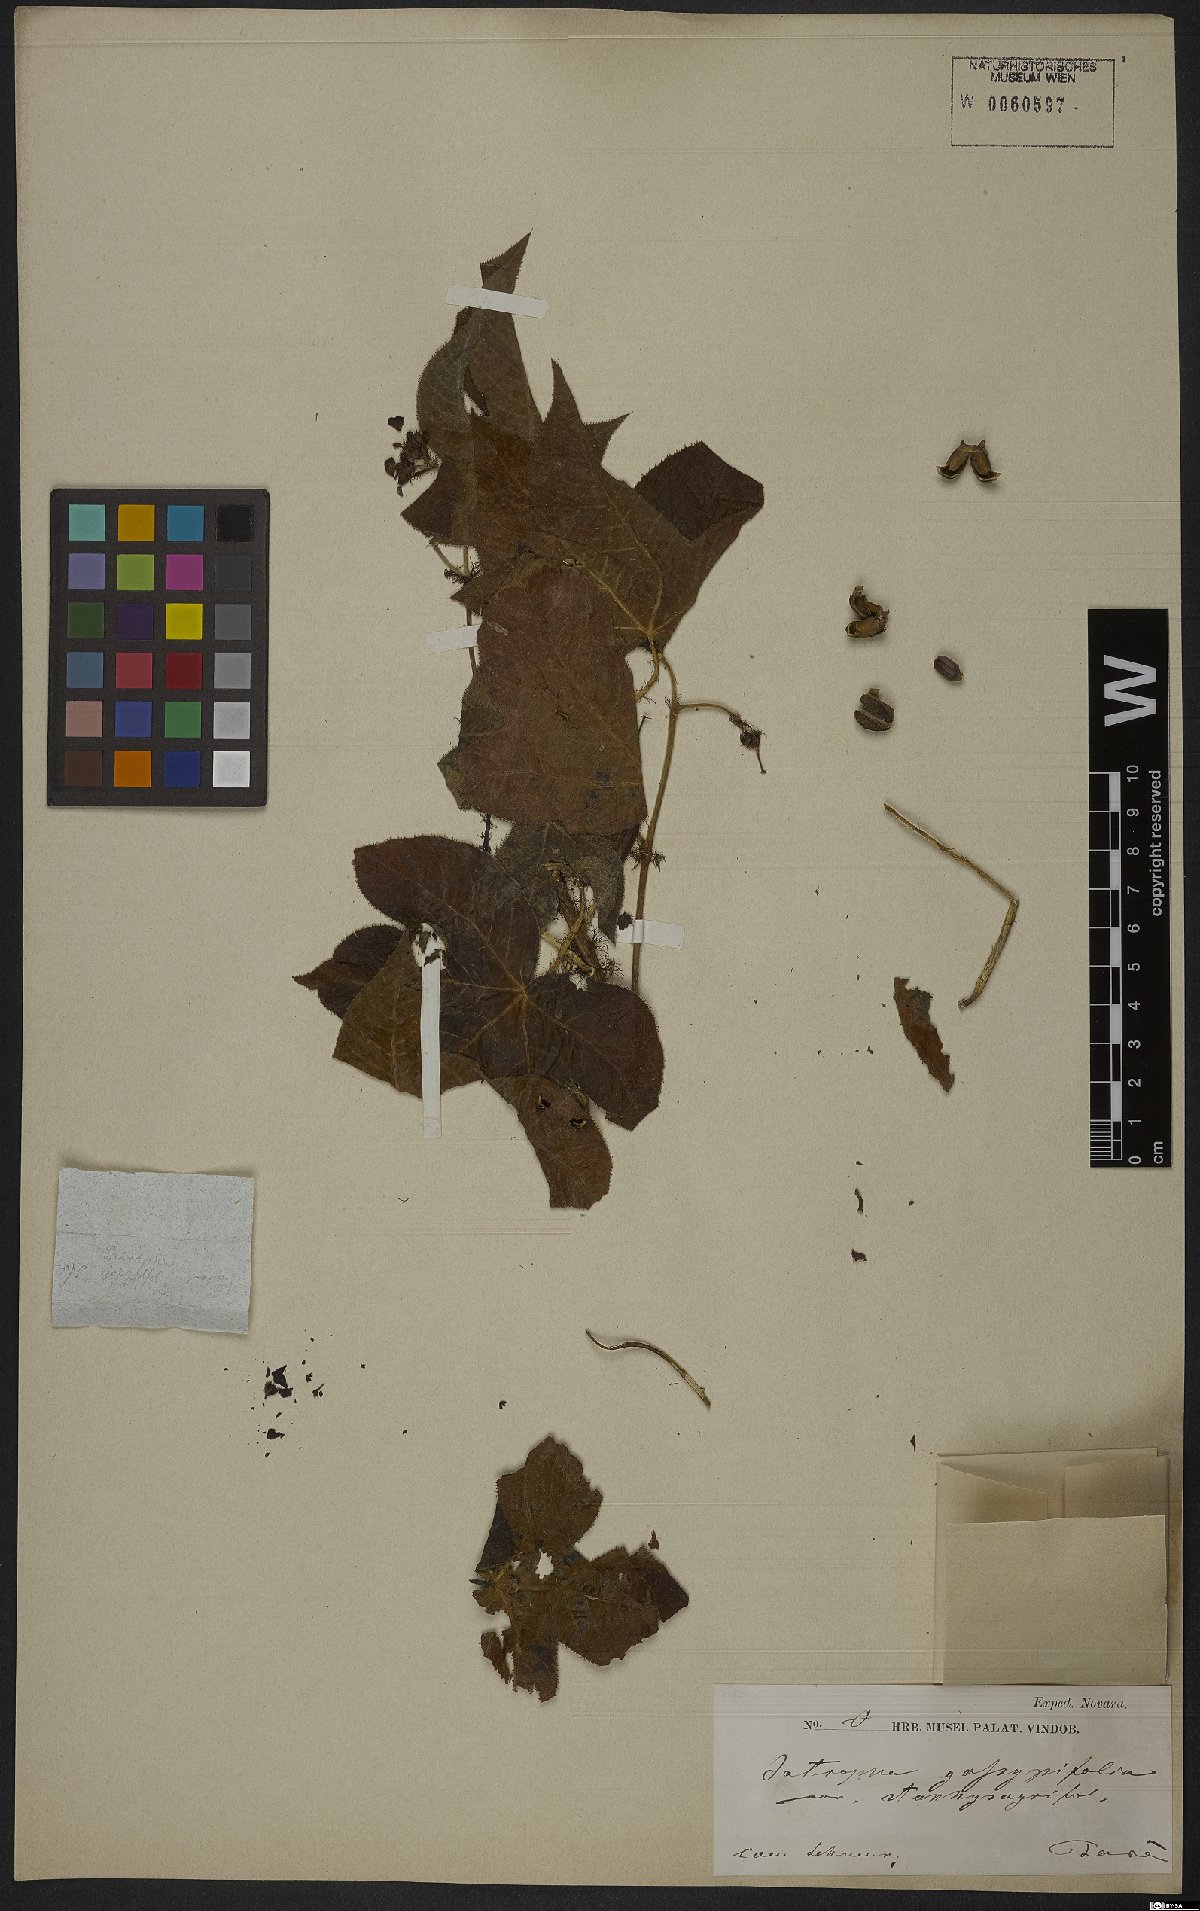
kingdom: Plantae
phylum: Tracheophyta
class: Magnoliopsida
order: Malpighiales
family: Euphorbiaceae
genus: Jatropha
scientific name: Jatropha gossypiifolia
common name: Bellyache bush
